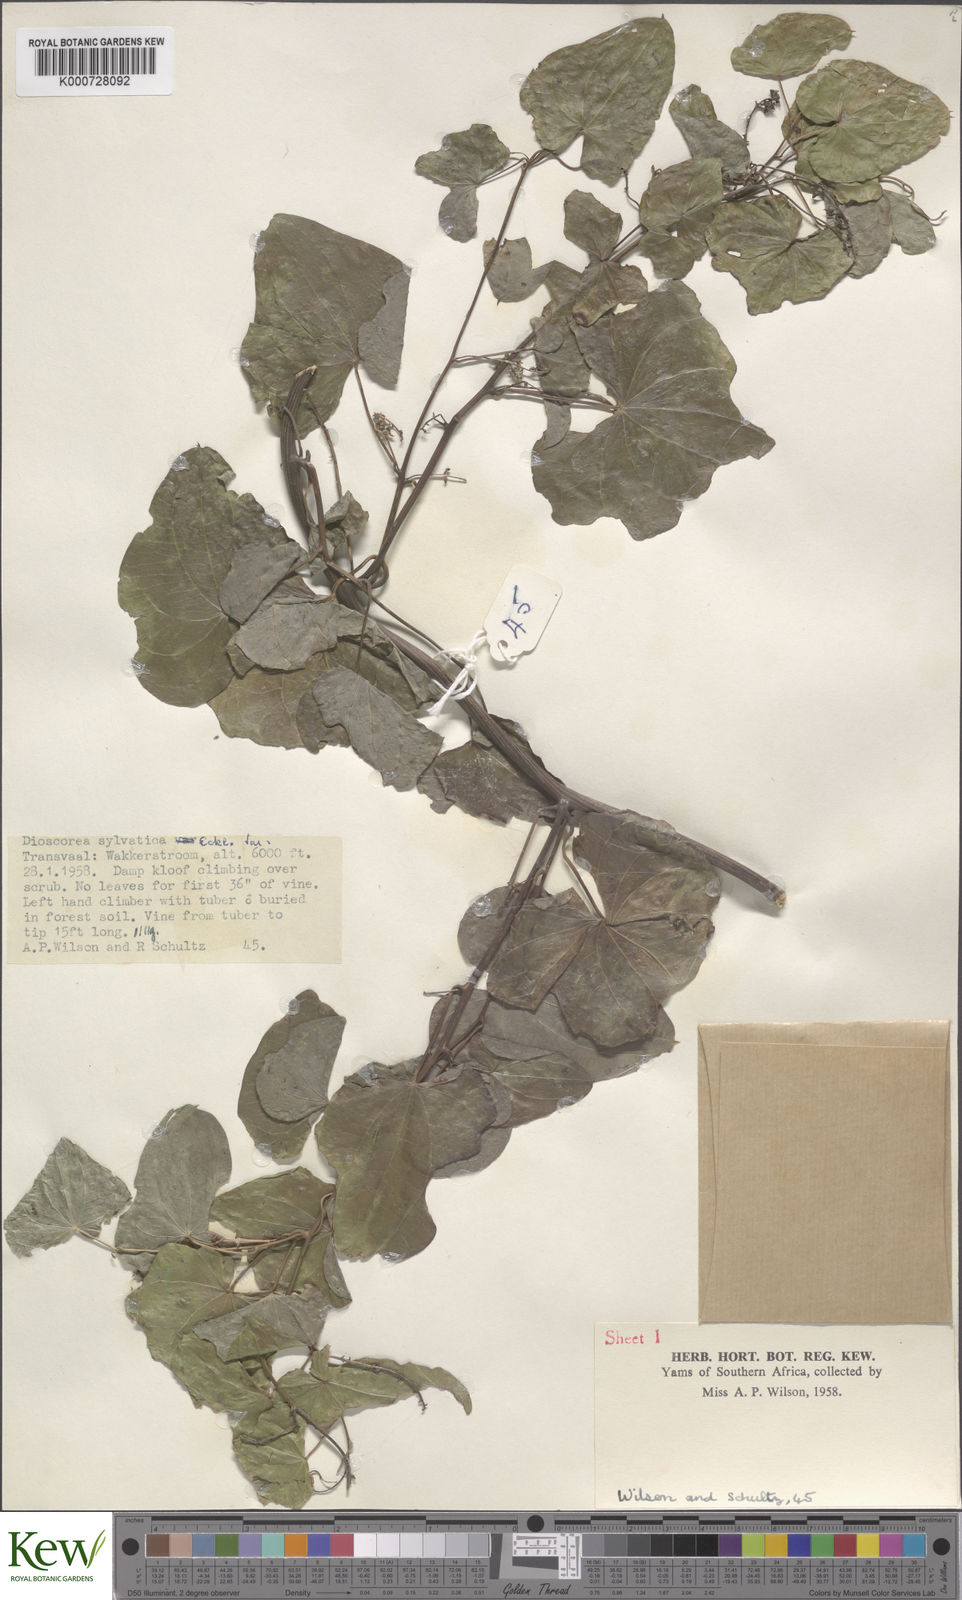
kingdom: Plantae
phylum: Tracheophyta
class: Liliopsida
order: Dioscoreales
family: Dioscoreaceae
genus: Dioscorea
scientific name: Dioscorea sylvatica
